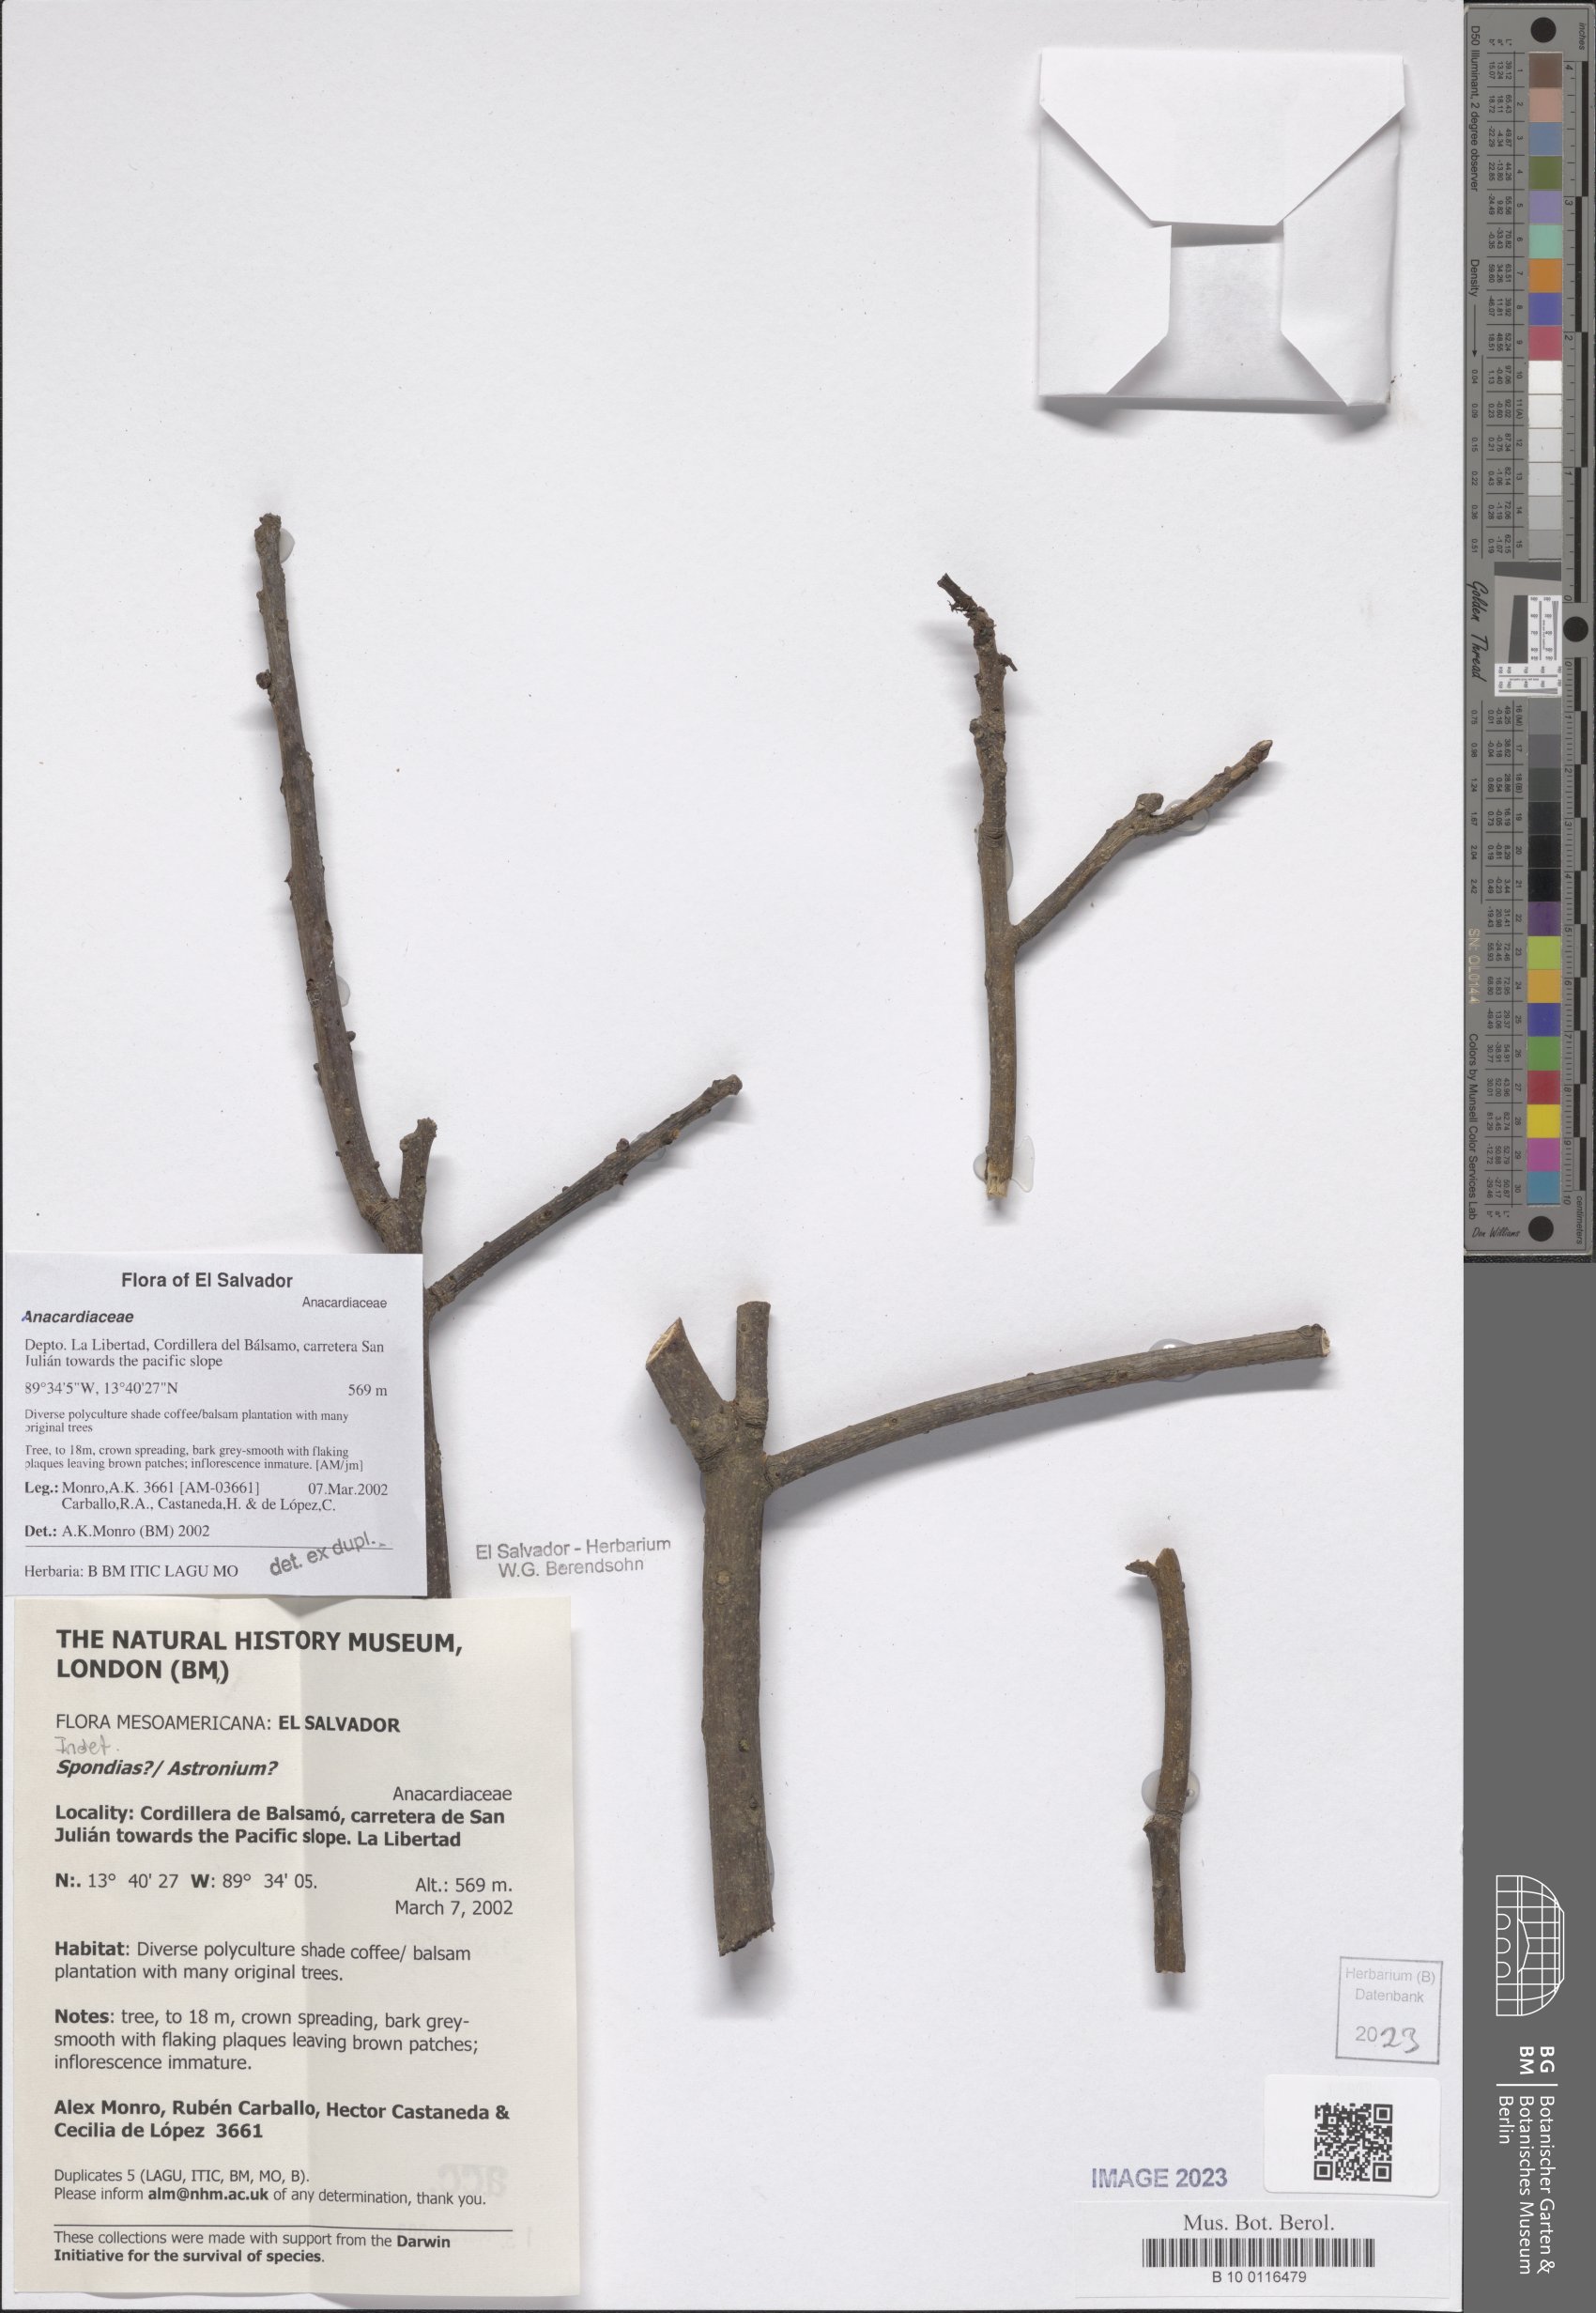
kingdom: Plantae
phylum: Tracheophyta
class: Magnoliopsida
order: Sapindales
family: Anacardiaceae
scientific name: Anacardiaceae
